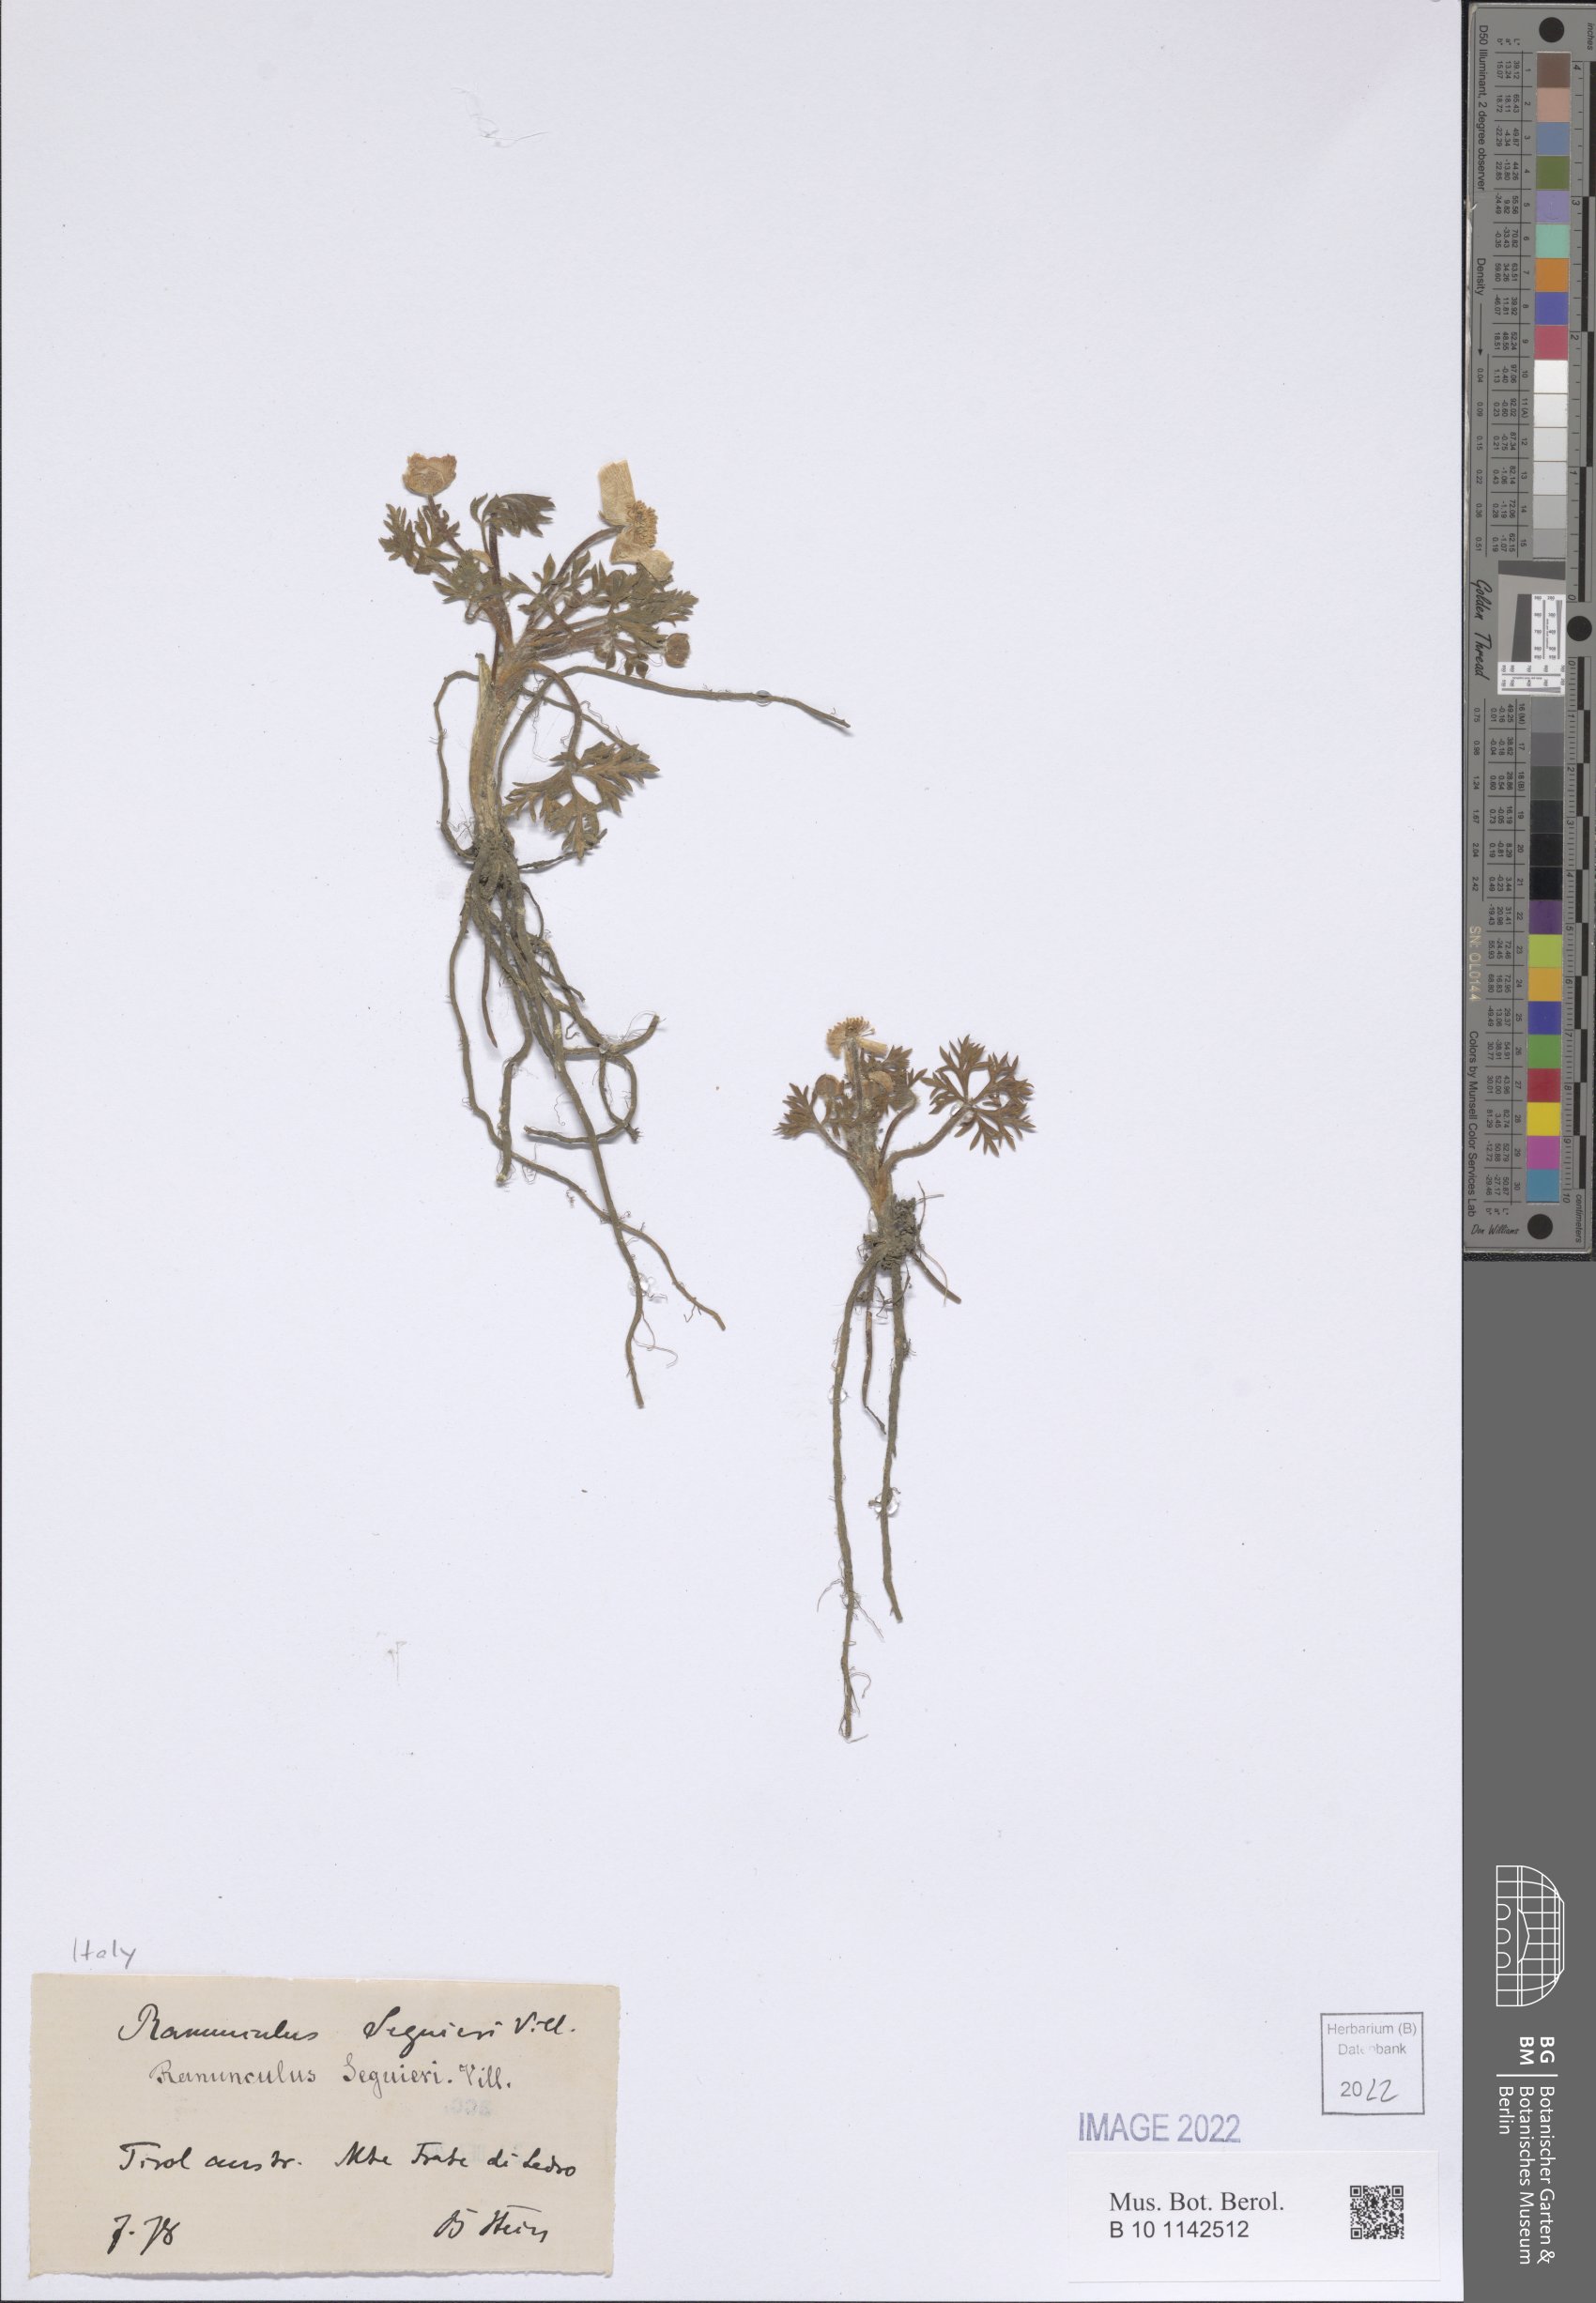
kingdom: Plantae
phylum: Tracheophyta
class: Magnoliopsida
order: Ranunculales
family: Ranunculaceae
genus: Ranunculus
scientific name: Ranunculus seguieri
